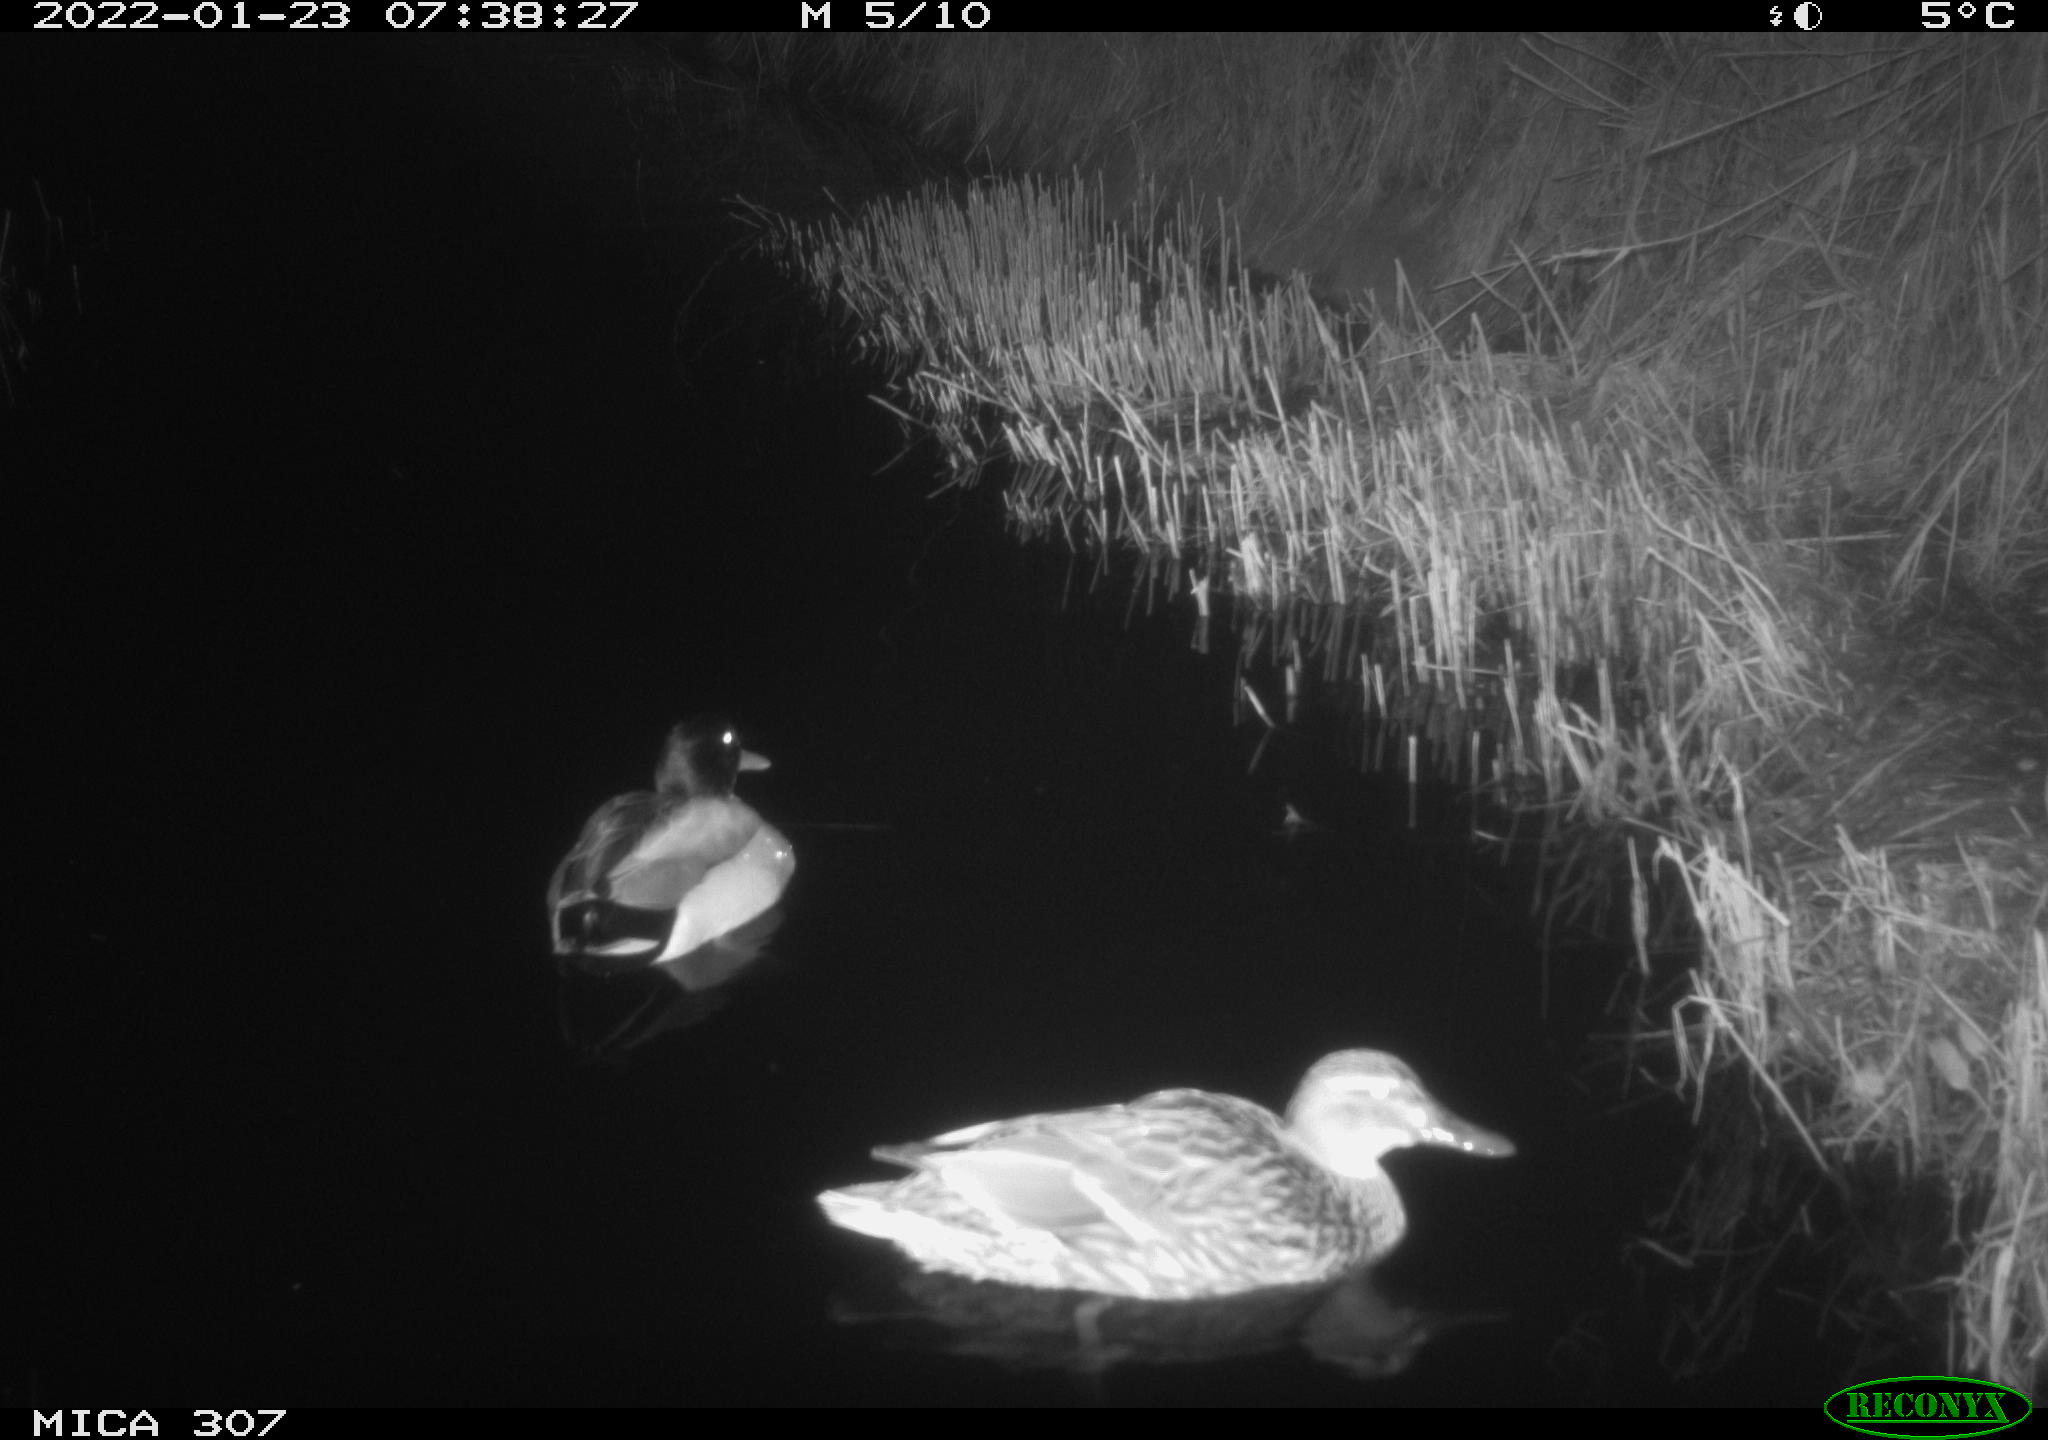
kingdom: Animalia
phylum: Chordata
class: Mammalia
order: Rodentia
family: Muridae
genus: Rattus
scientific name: Rattus norvegicus
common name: Brown rat
